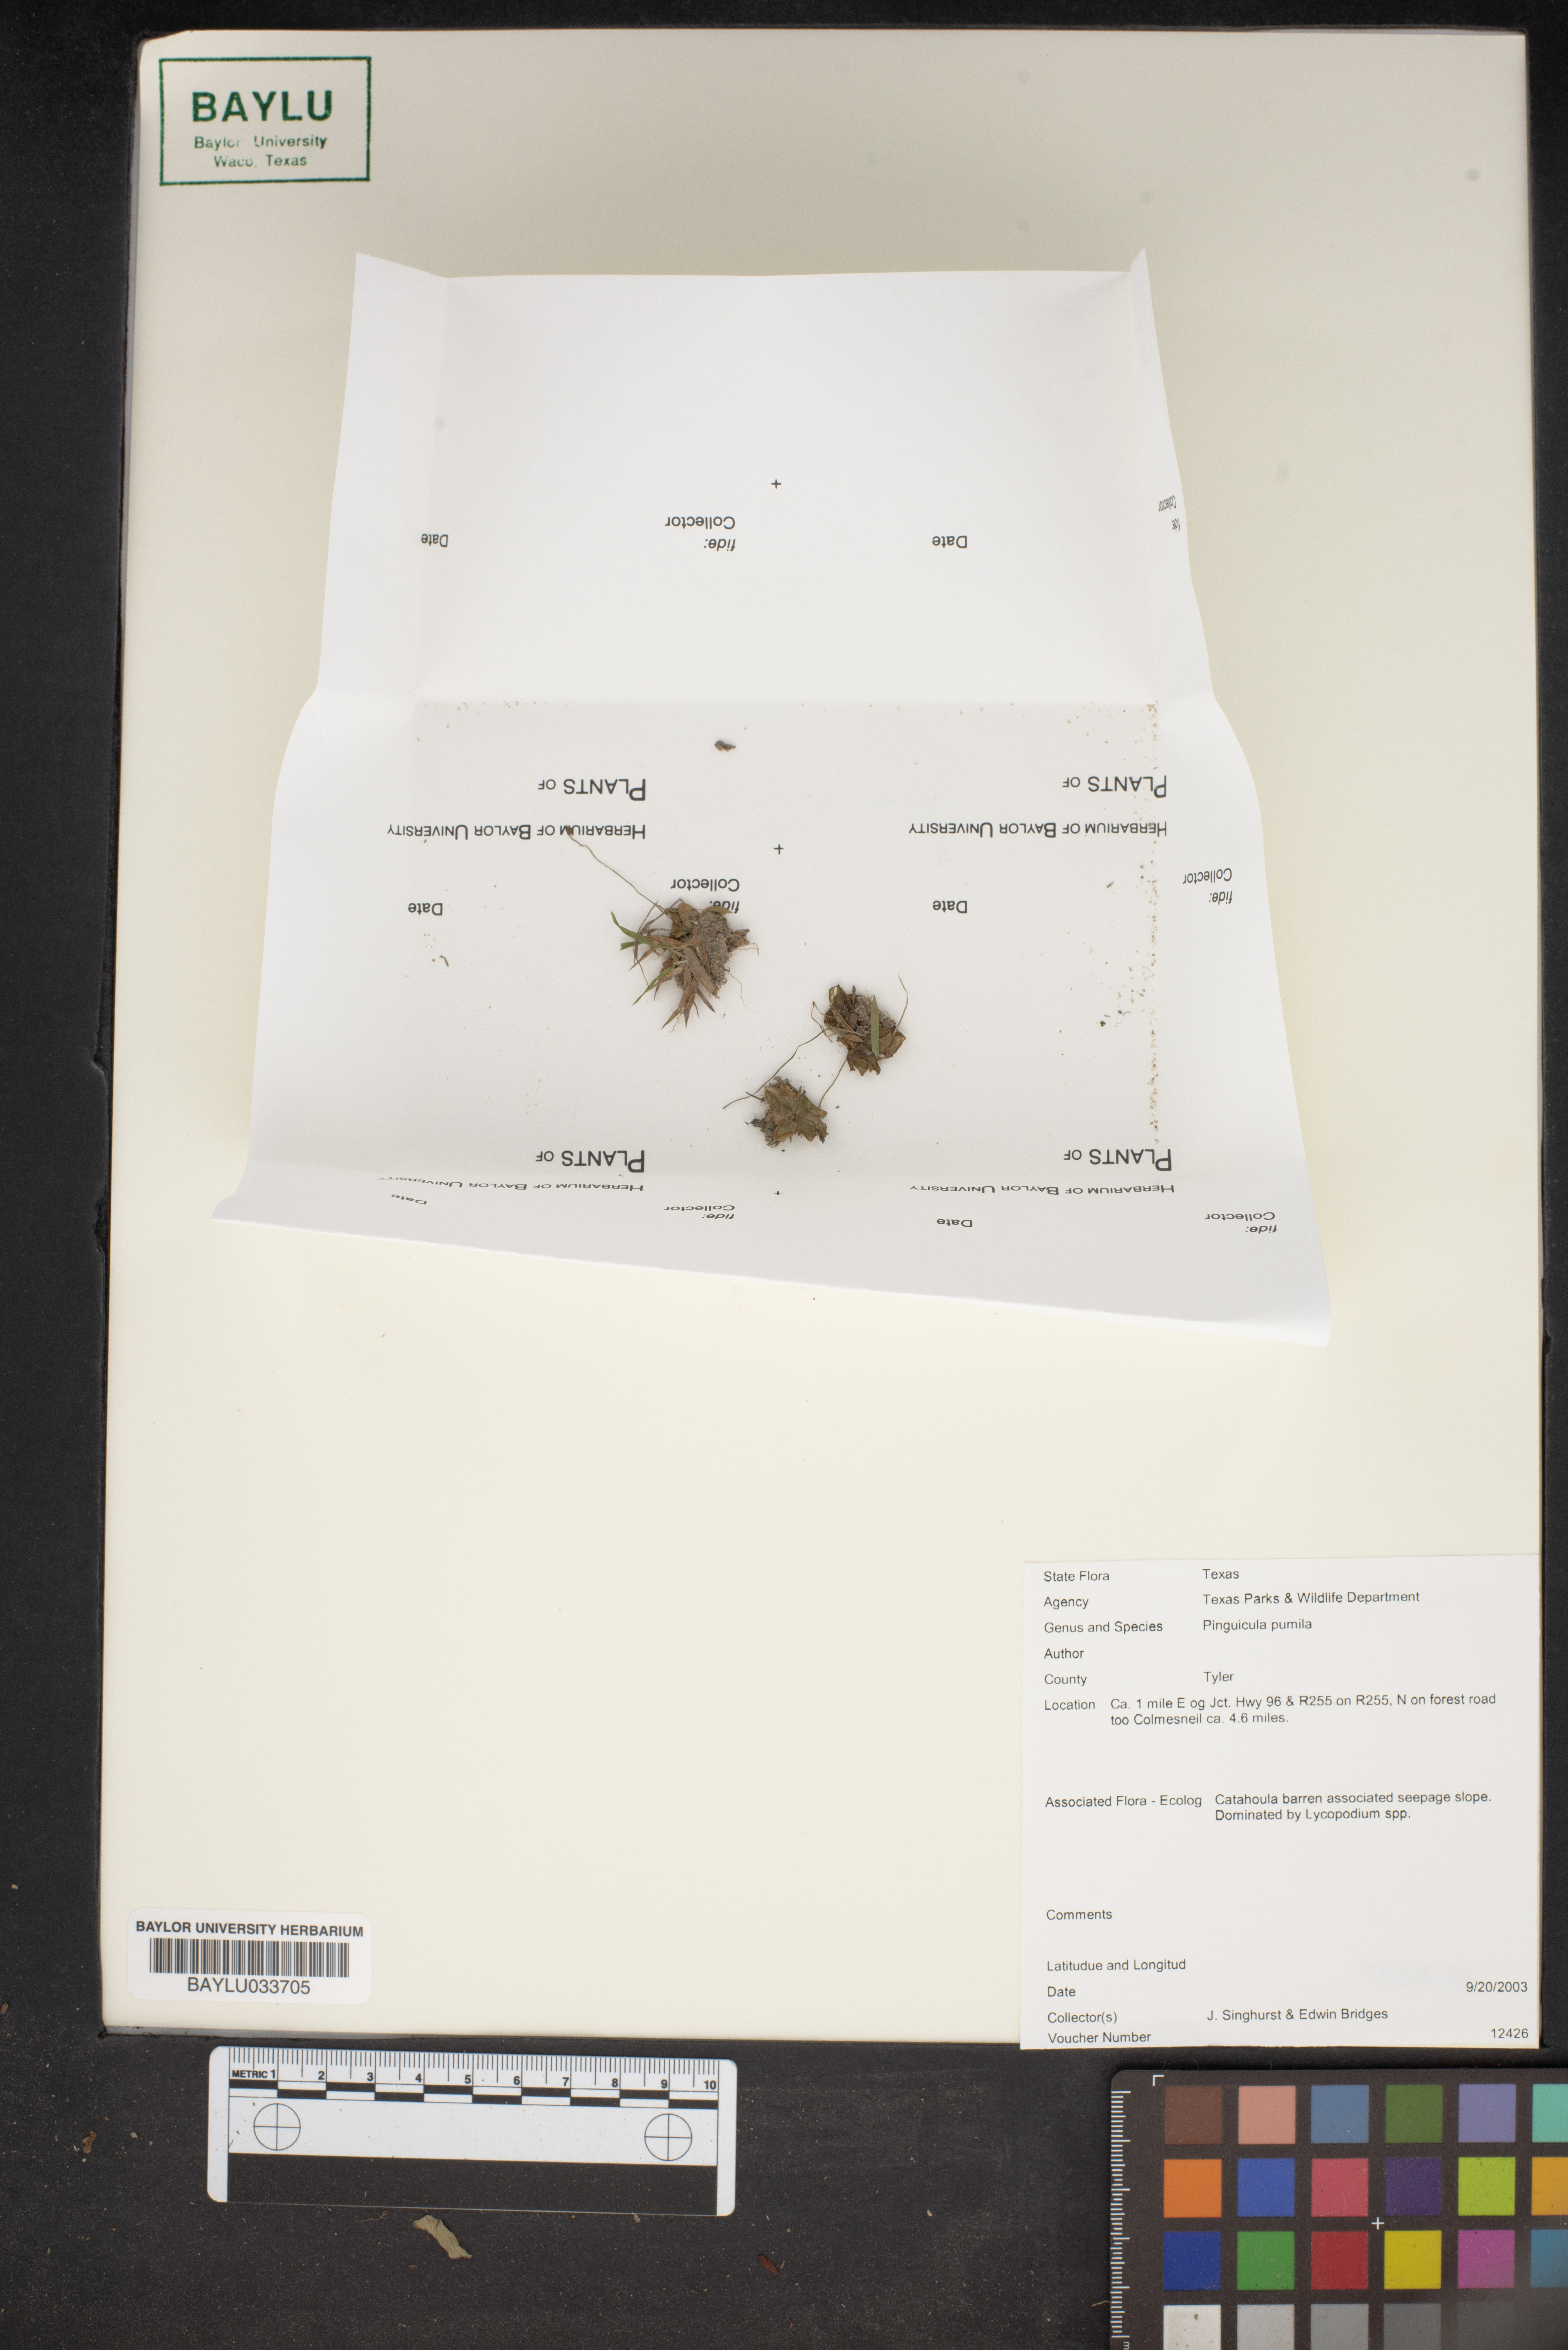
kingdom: Plantae
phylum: Tracheophyta
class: Magnoliopsida
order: Lamiales
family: Lentibulariaceae
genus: Pinguicula
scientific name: Pinguicula pumila
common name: Small butterwort
